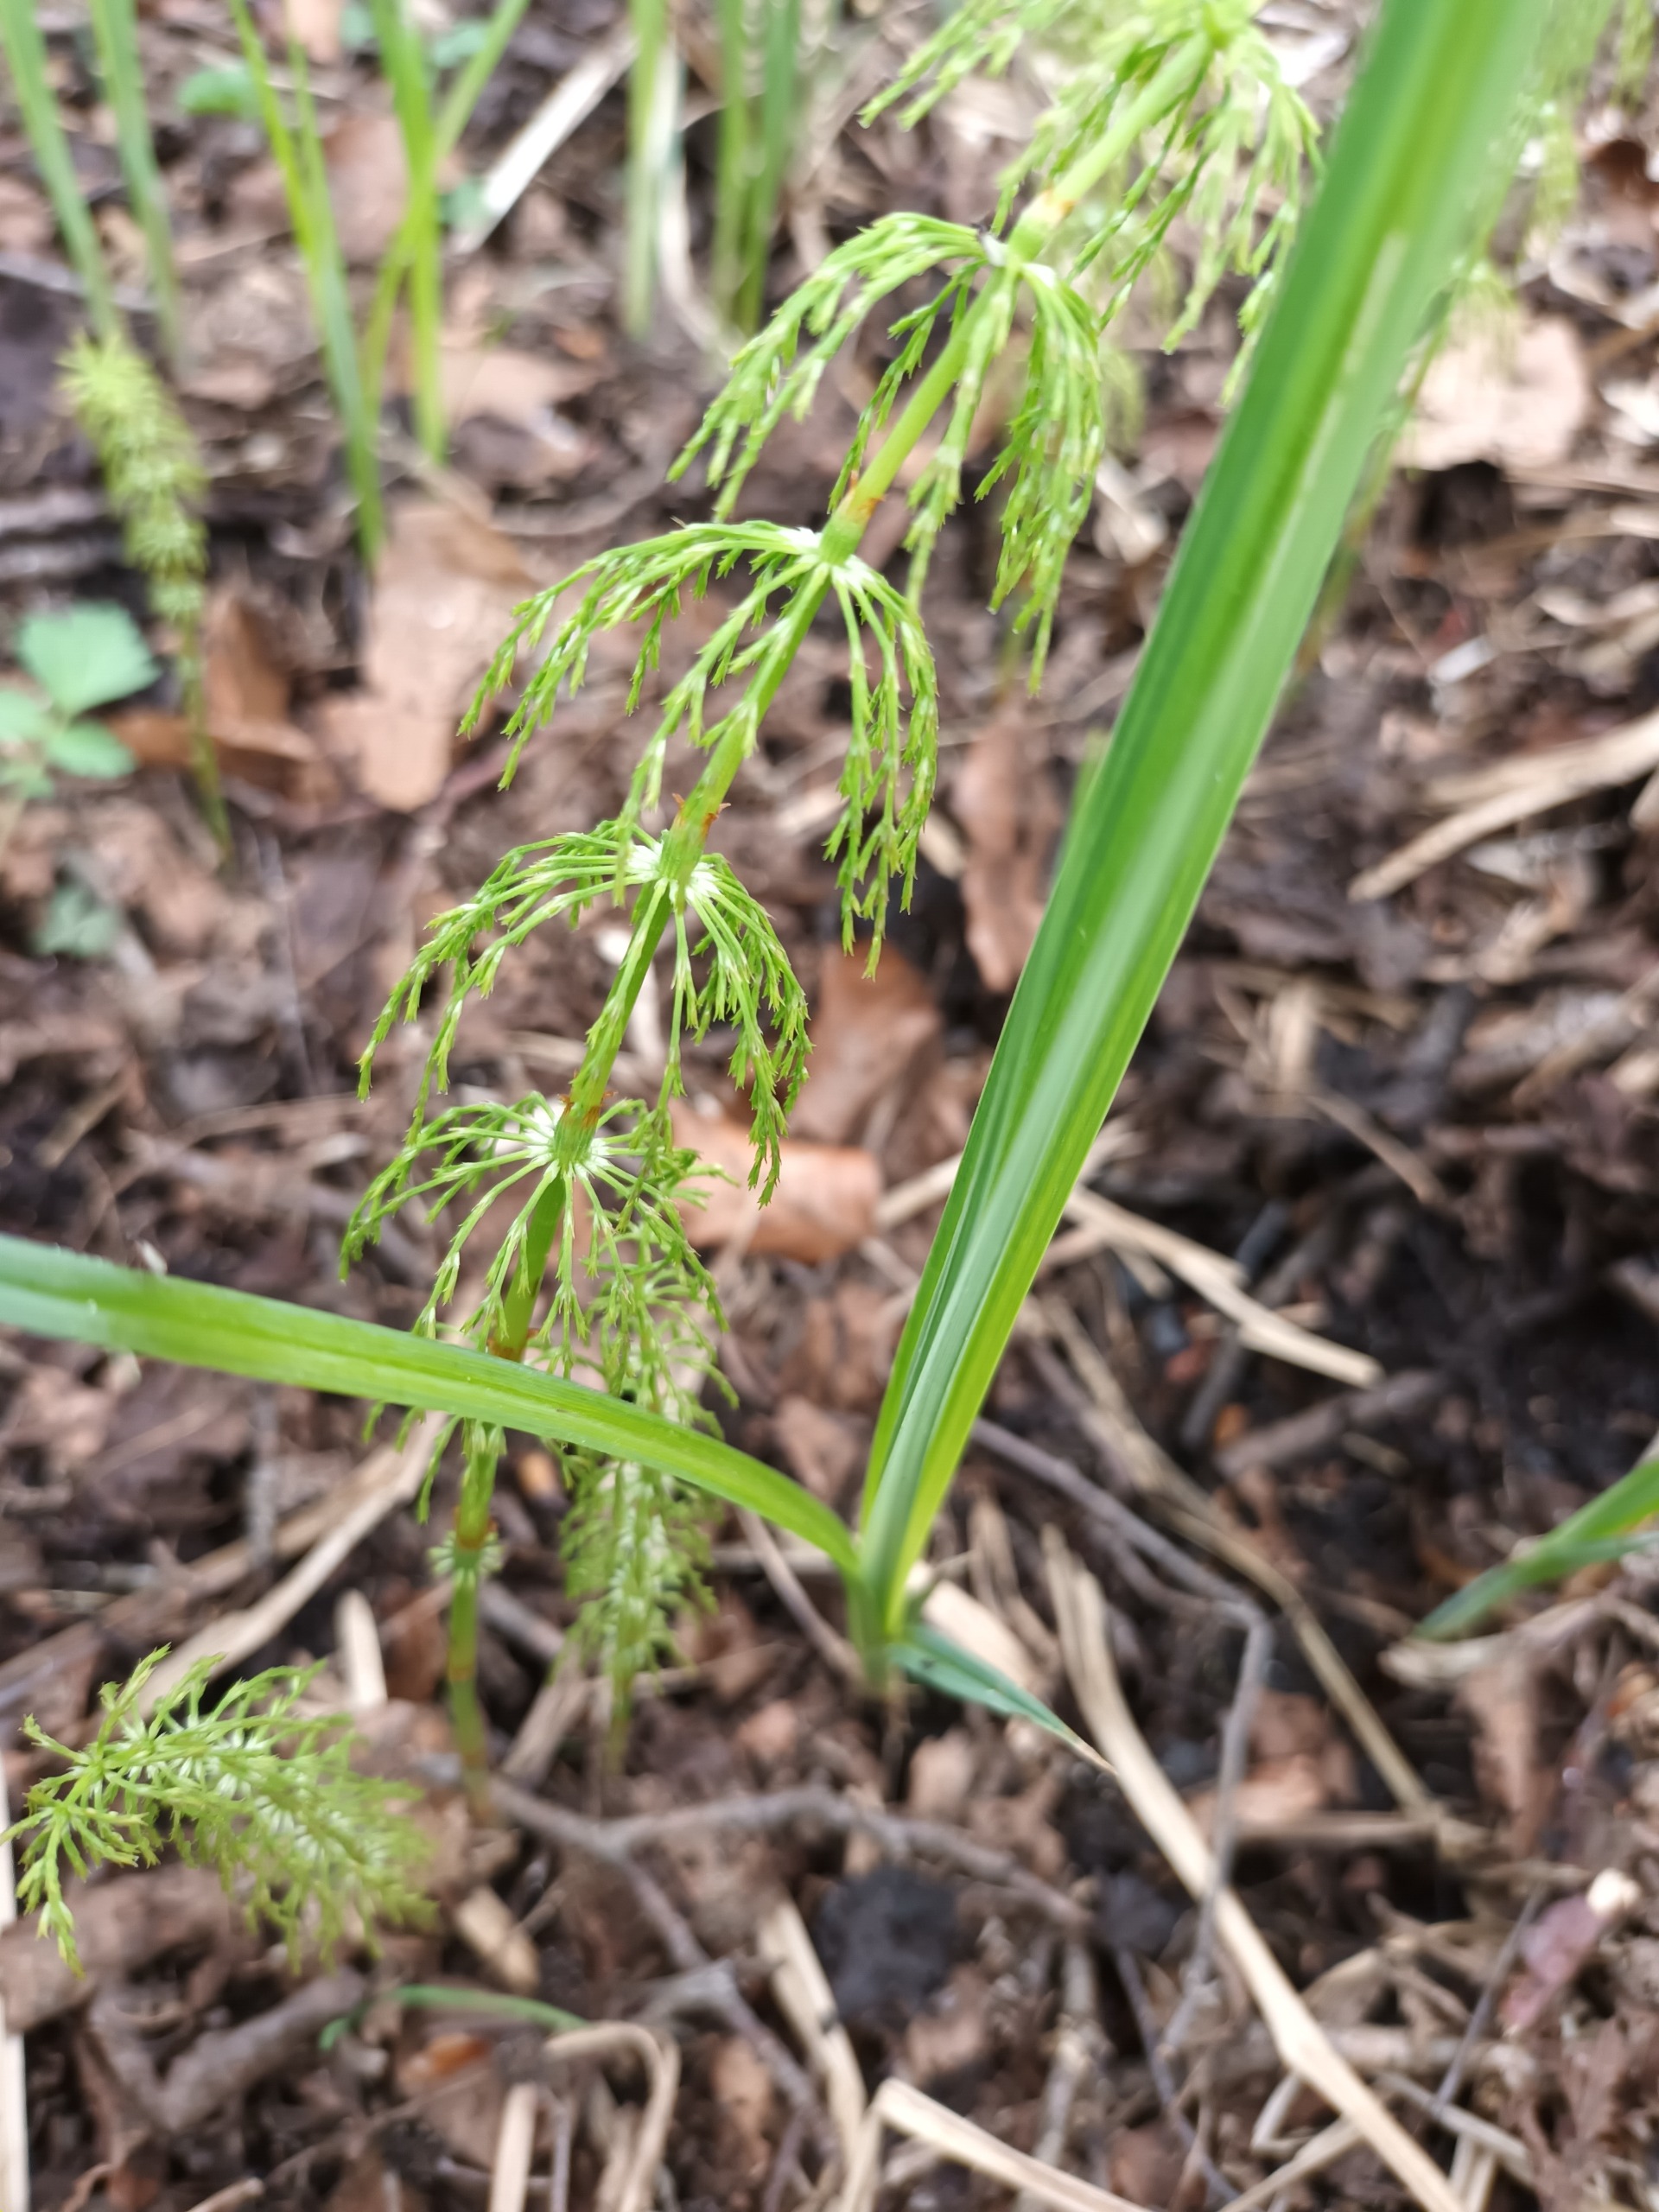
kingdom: Plantae
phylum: Tracheophyta
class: Polypodiopsida
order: Equisetales
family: Equisetaceae
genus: Equisetum
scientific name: Equisetum sylvaticum
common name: Skov-padderok
